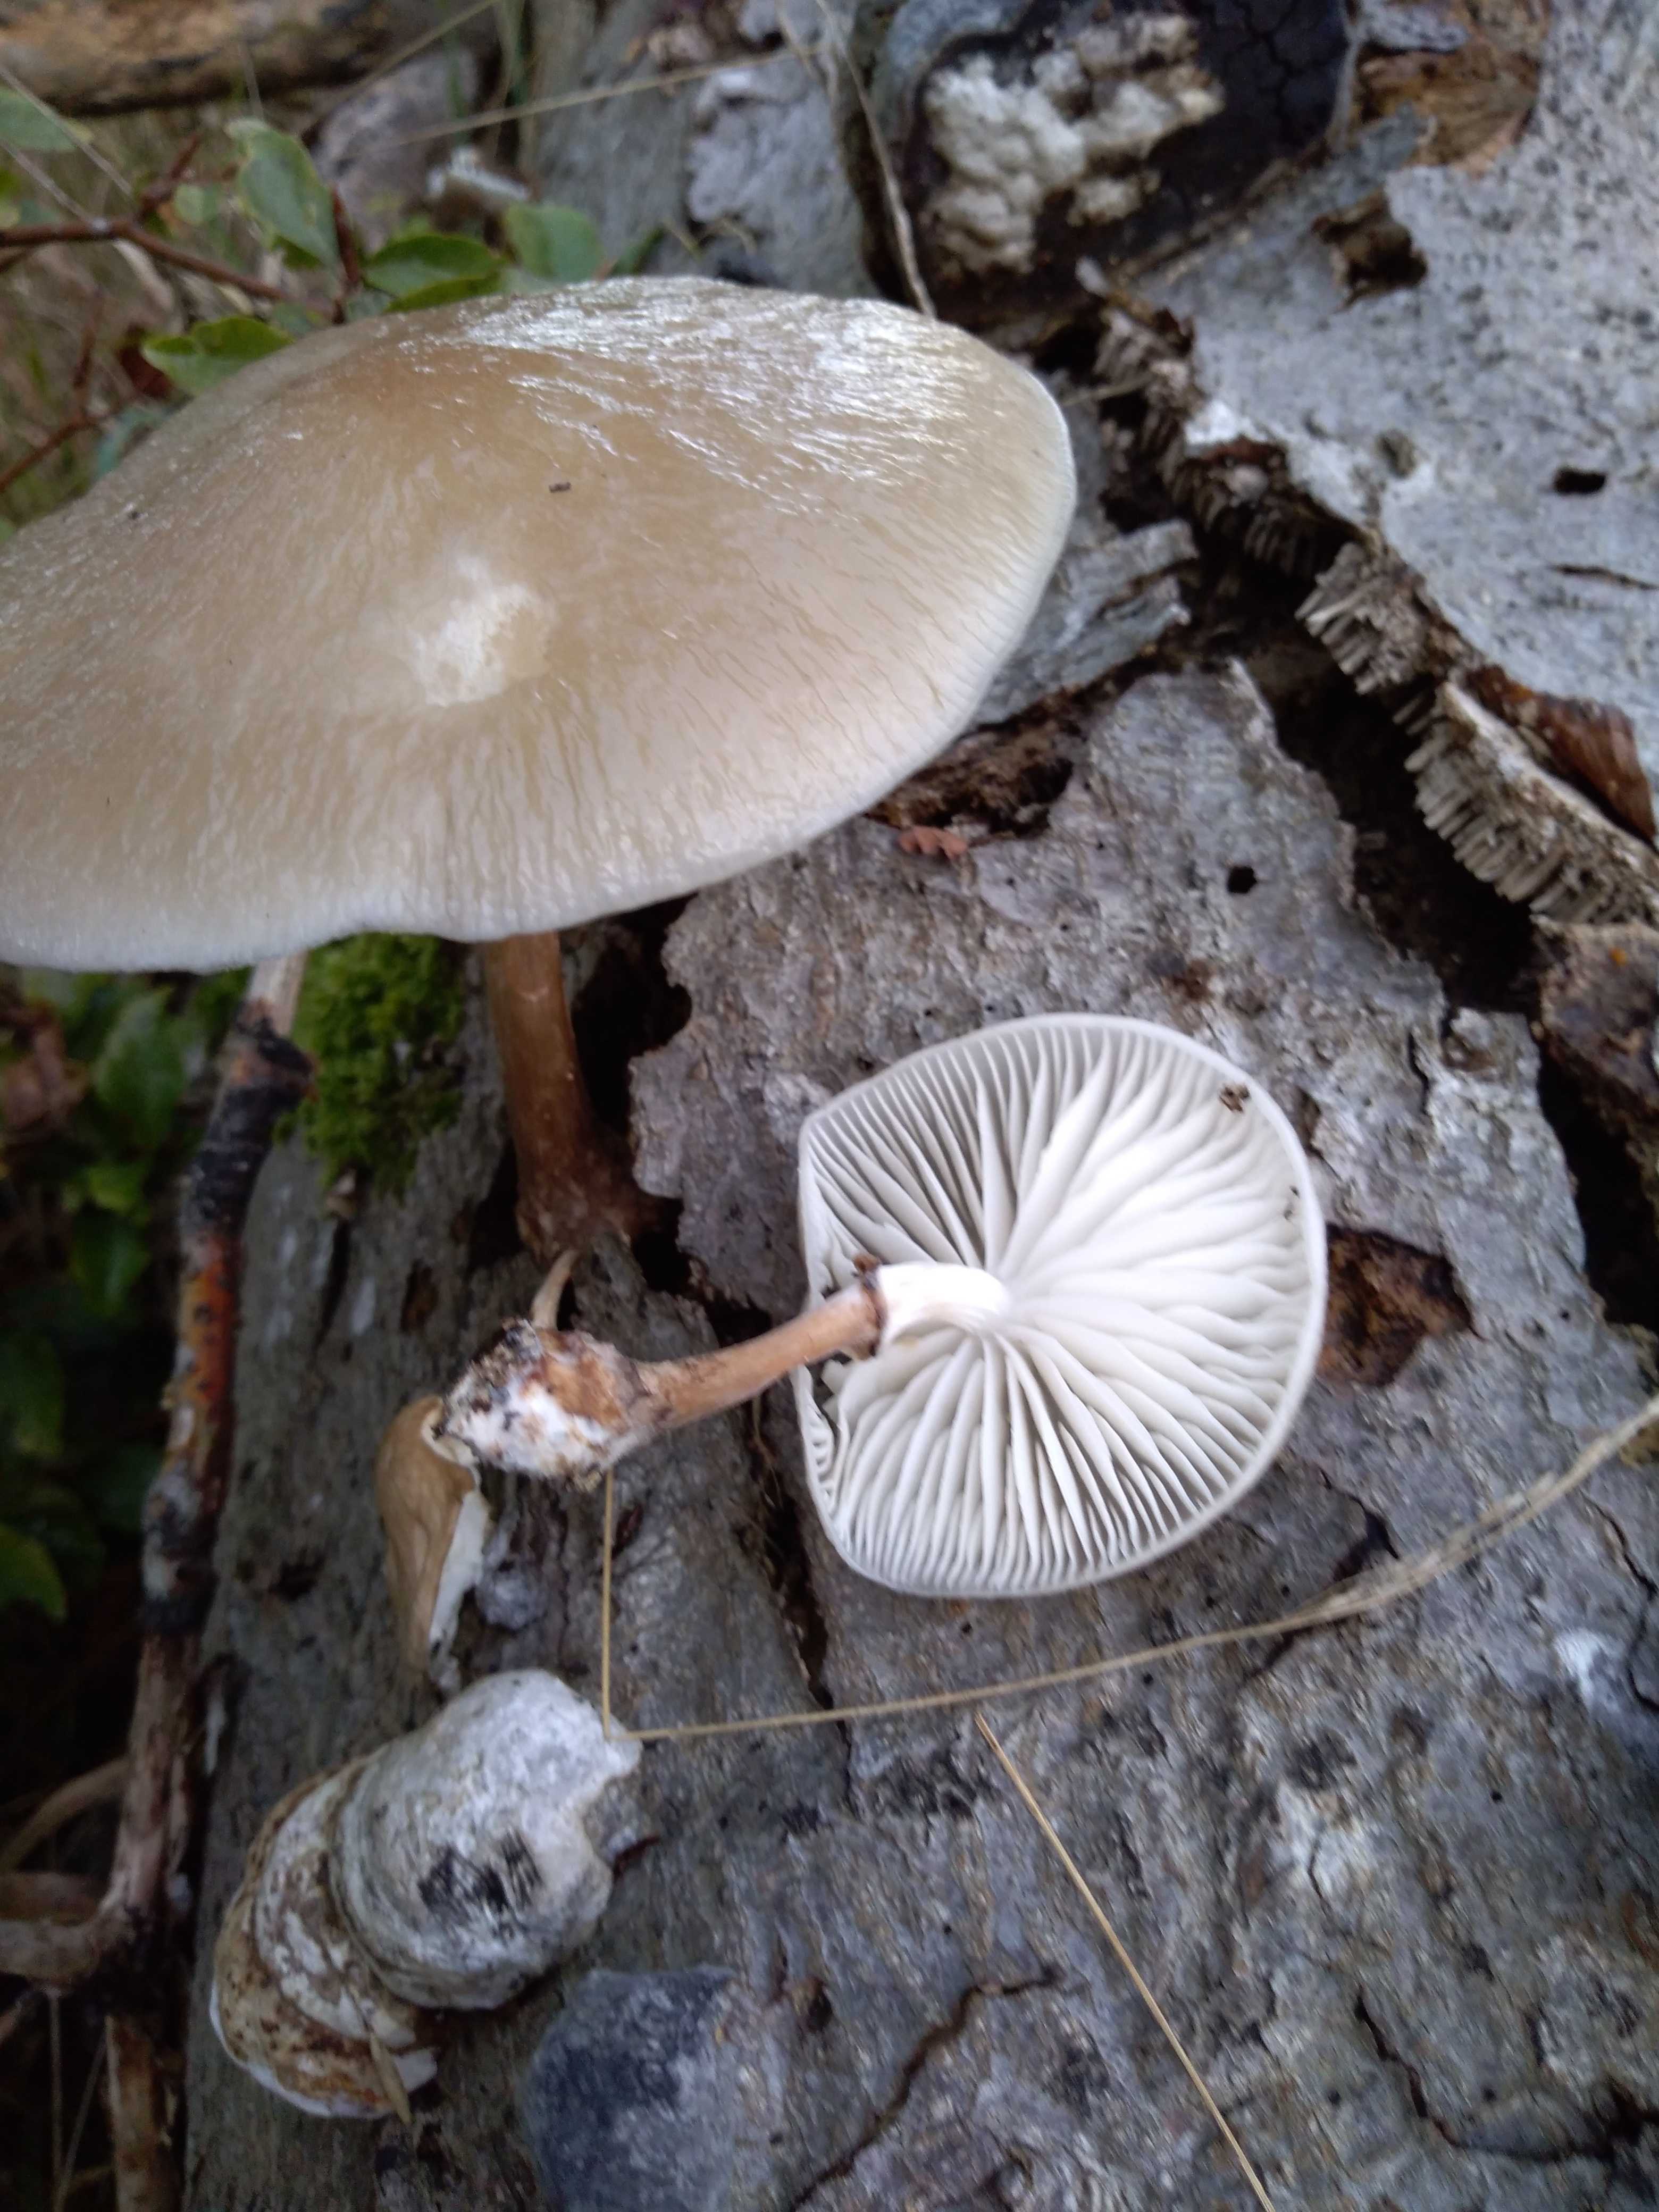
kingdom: Fungi
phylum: Basidiomycota
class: Agaricomycetes
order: Agaricales
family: Physalacriaceae
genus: Mucidula
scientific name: Mucidula mucida
